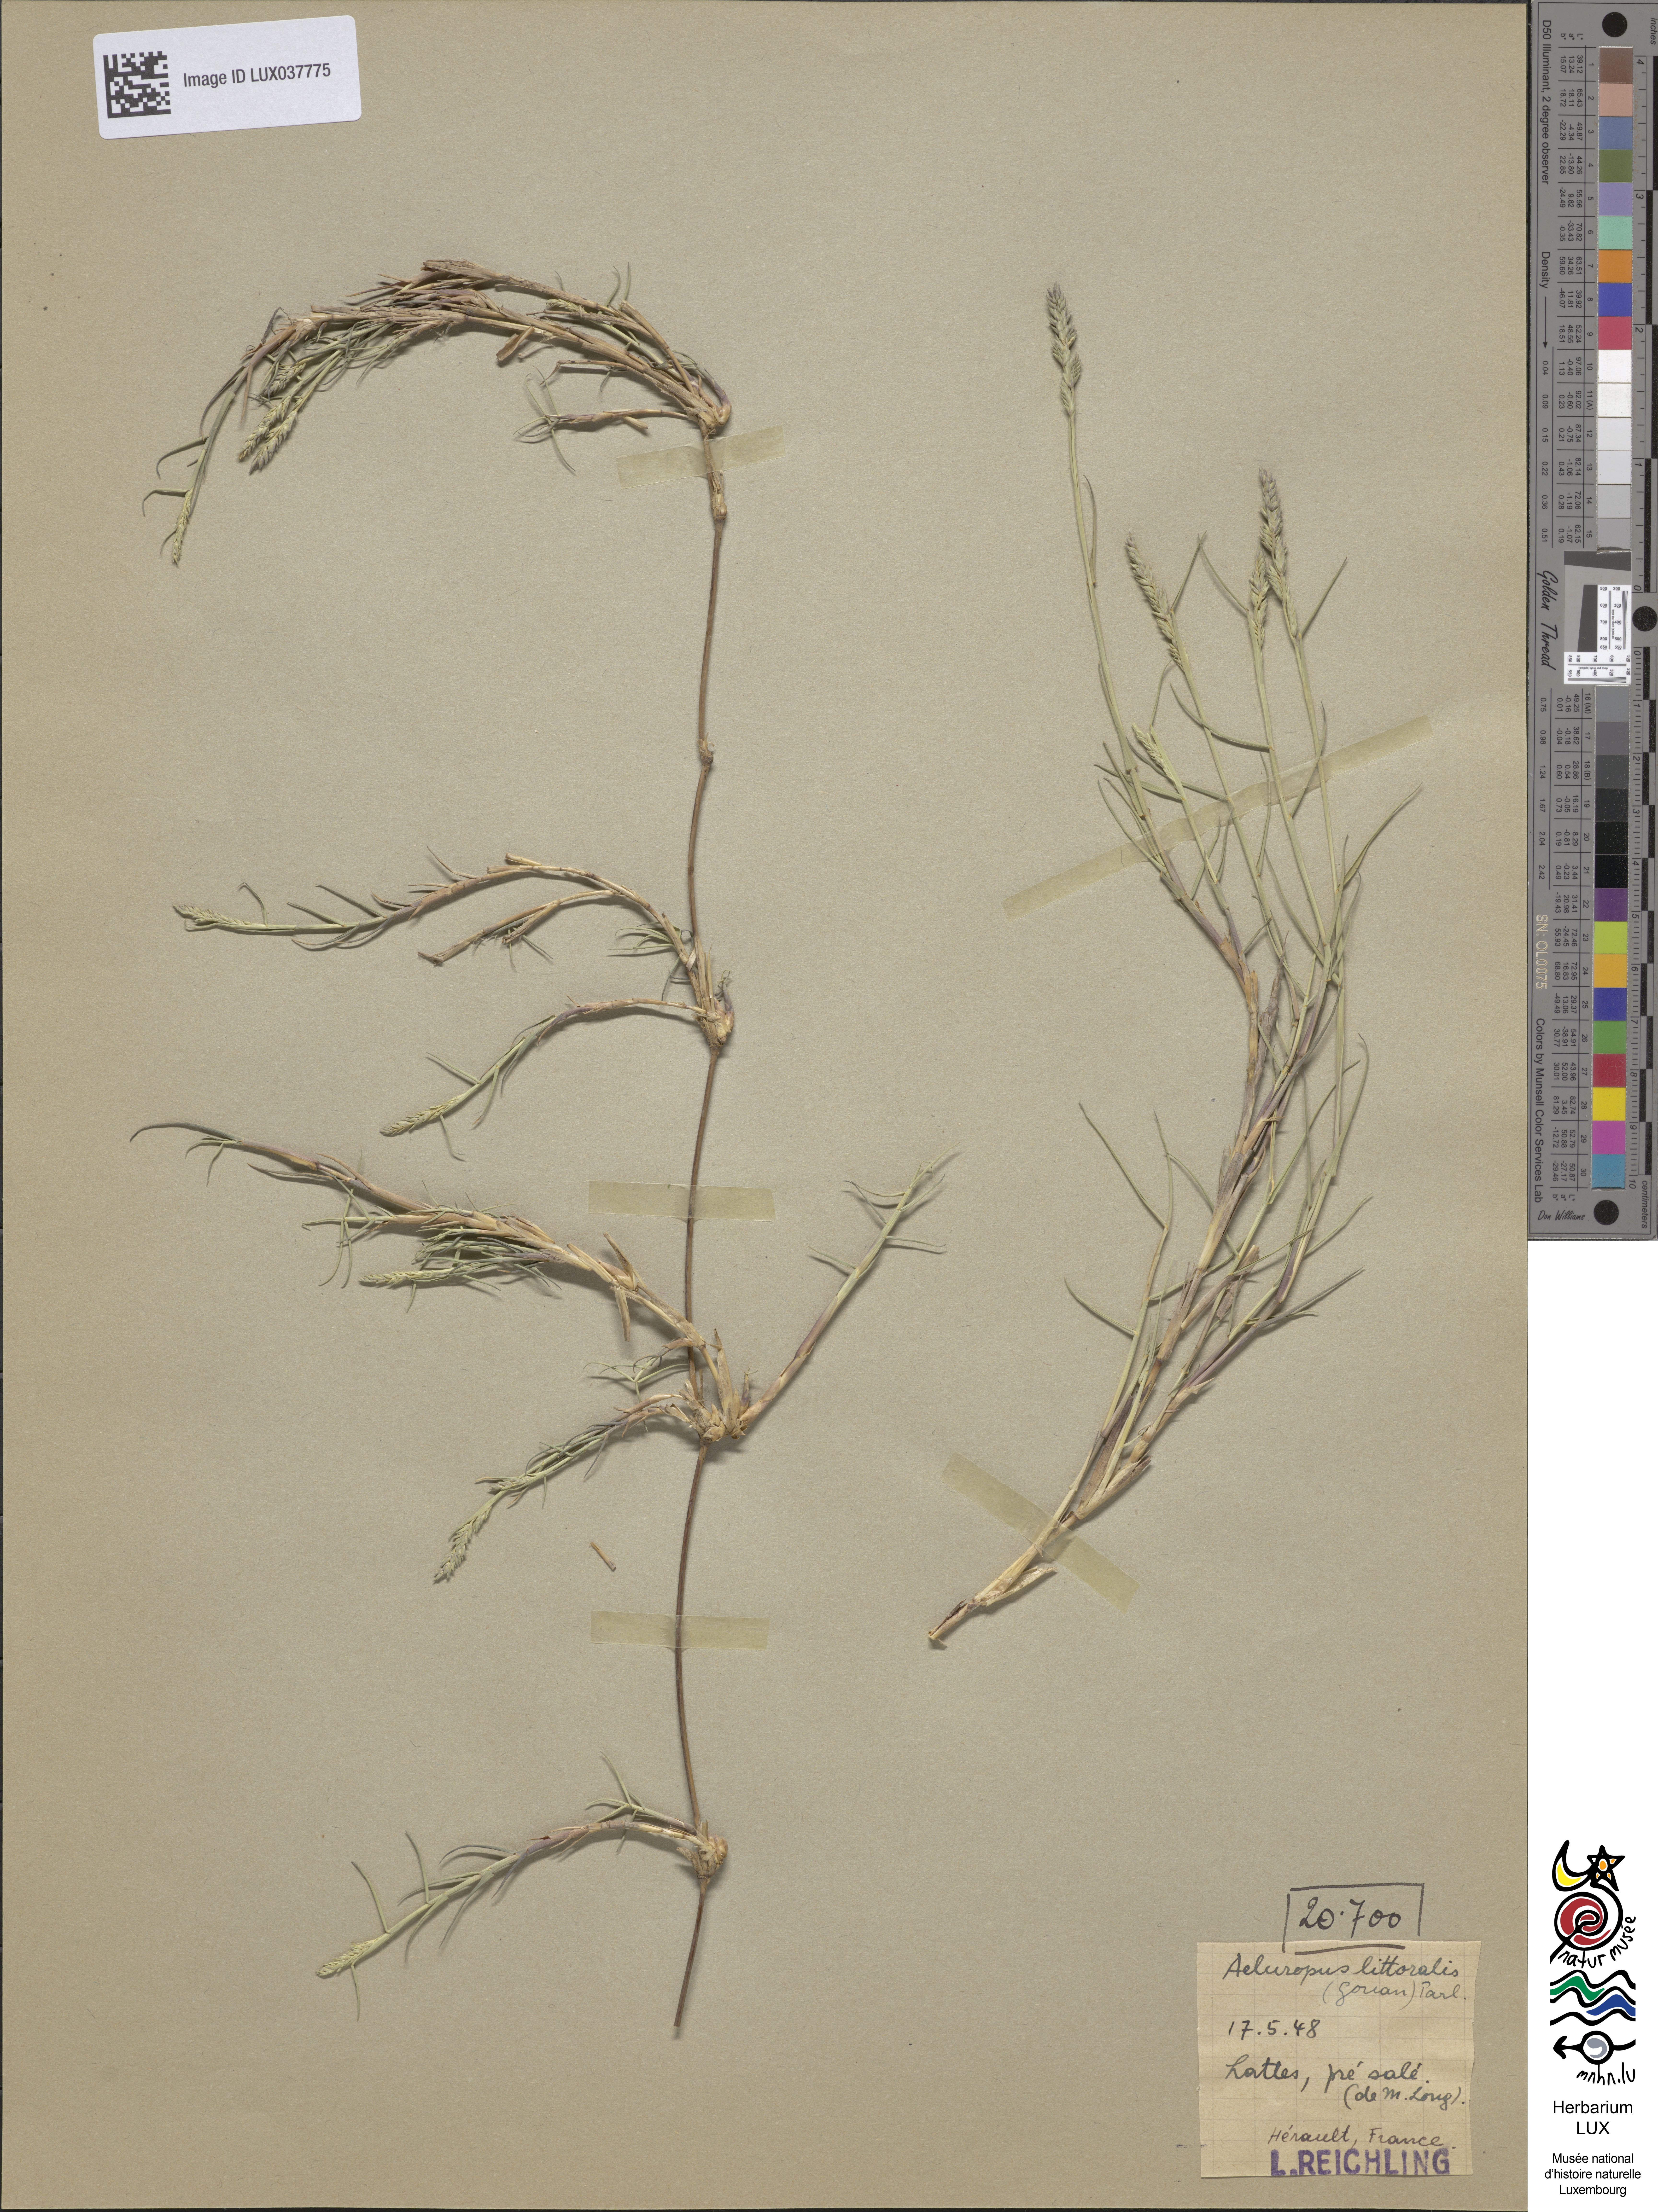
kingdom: Plantae
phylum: Tracheophyta
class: Liliopsida
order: Poales
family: Poaceae
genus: Aeluropus
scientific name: Aeluropus littoralis
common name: Indian walnut
